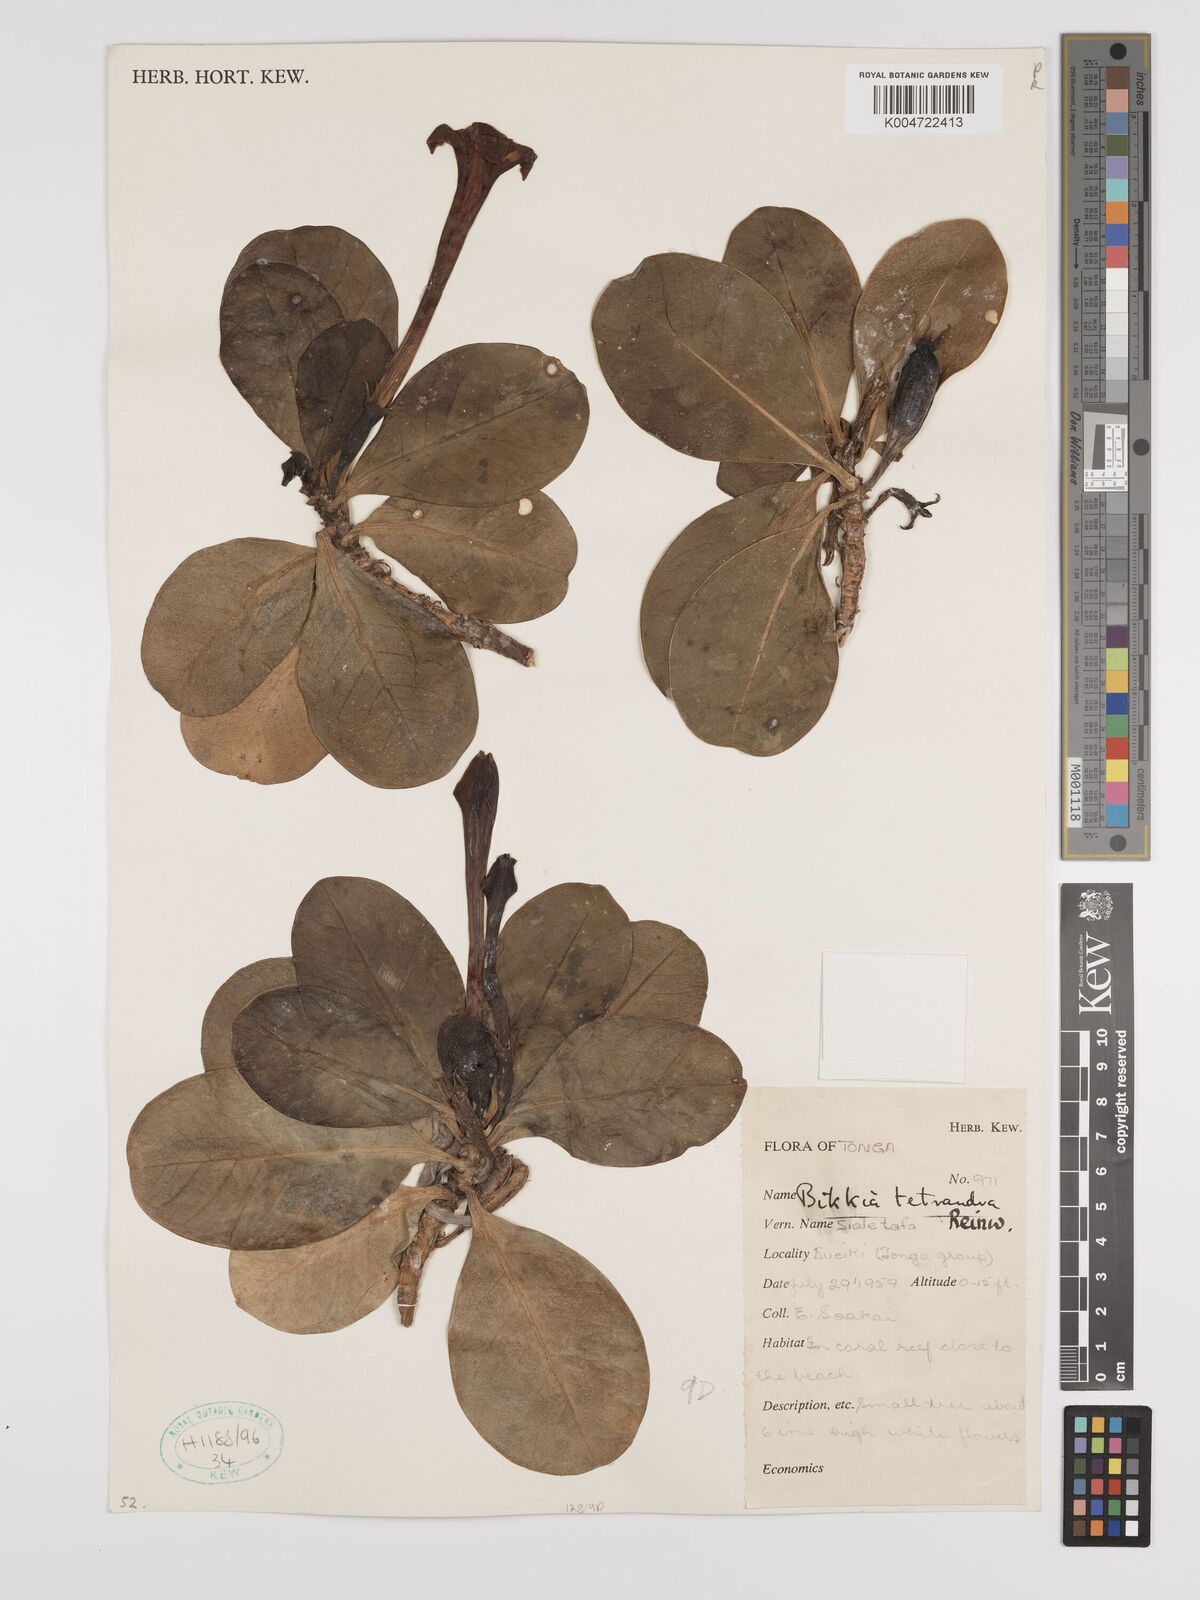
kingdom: Plantae
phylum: Tracheophyta
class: Magnoliopsida
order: Gentianales
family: Rubiaceae
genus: Bikkia
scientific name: Bikkia
